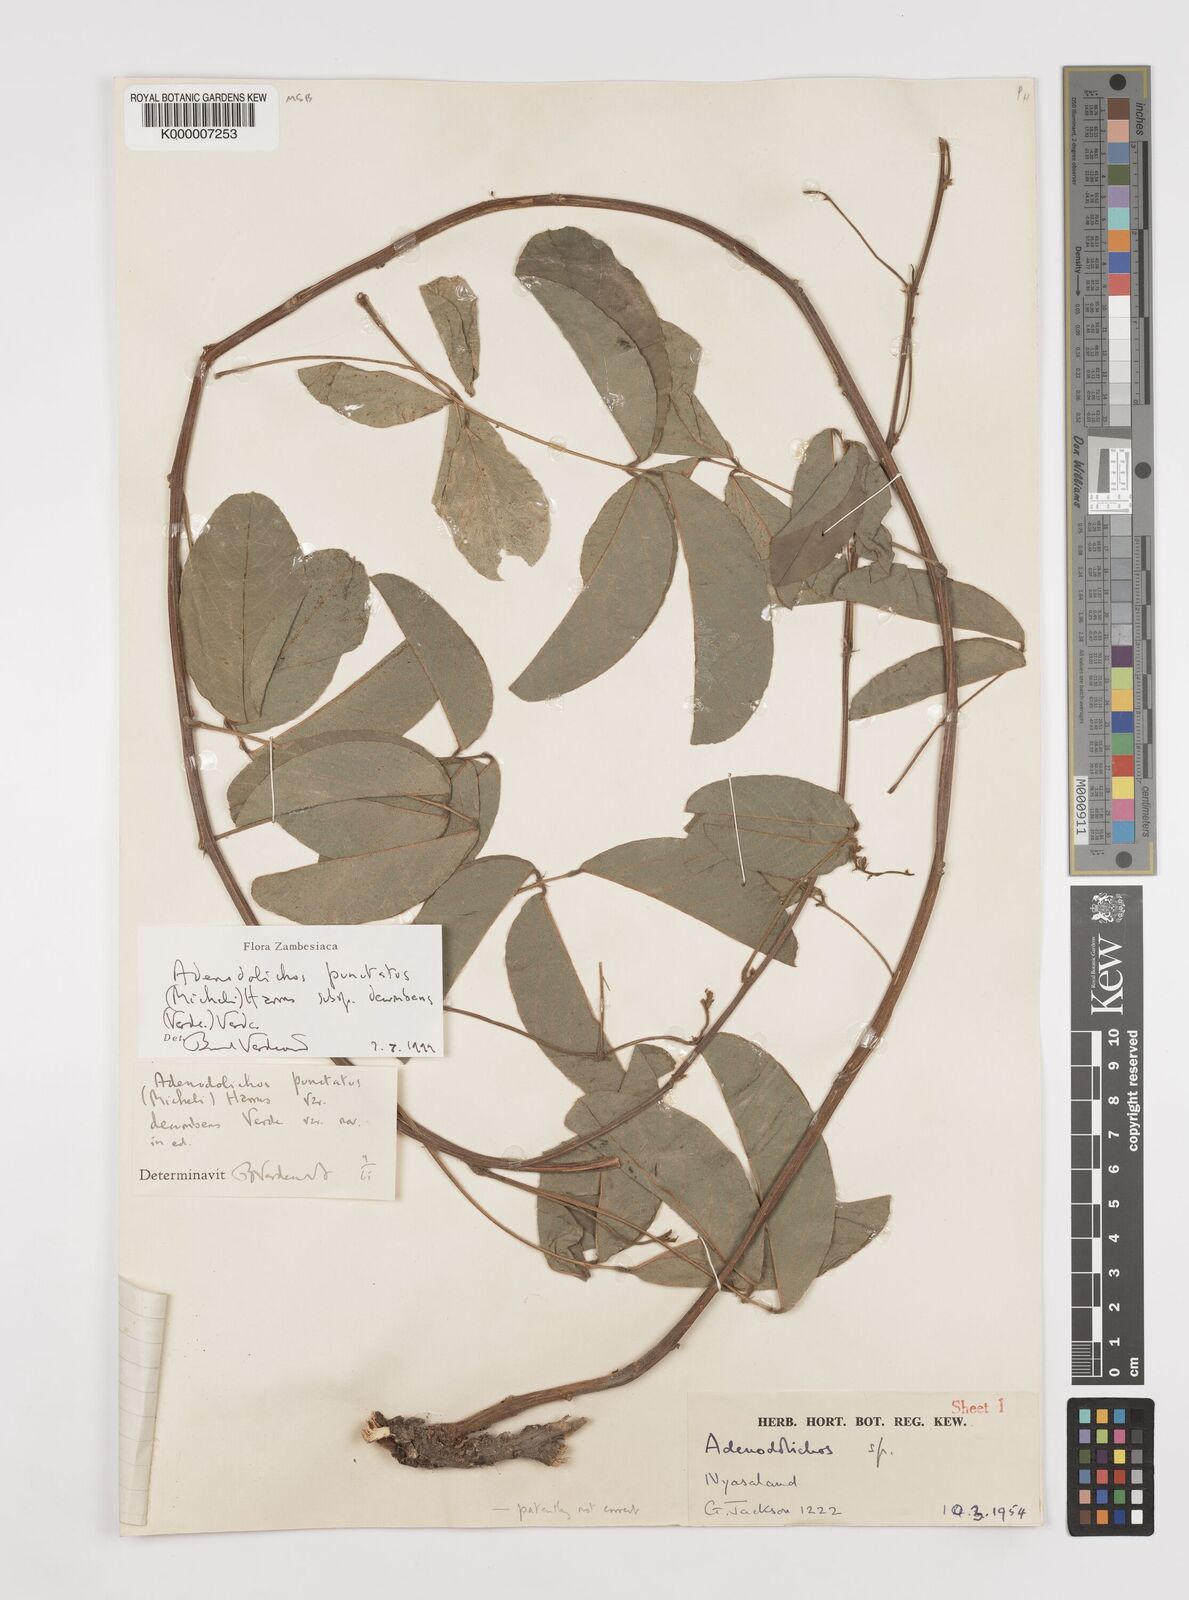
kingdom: Plantae
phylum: Tracheophyta
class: Magnoliopsida
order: Fabales
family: Fabaceae
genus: Adenodolichos
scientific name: Adenodolichos punctatus
